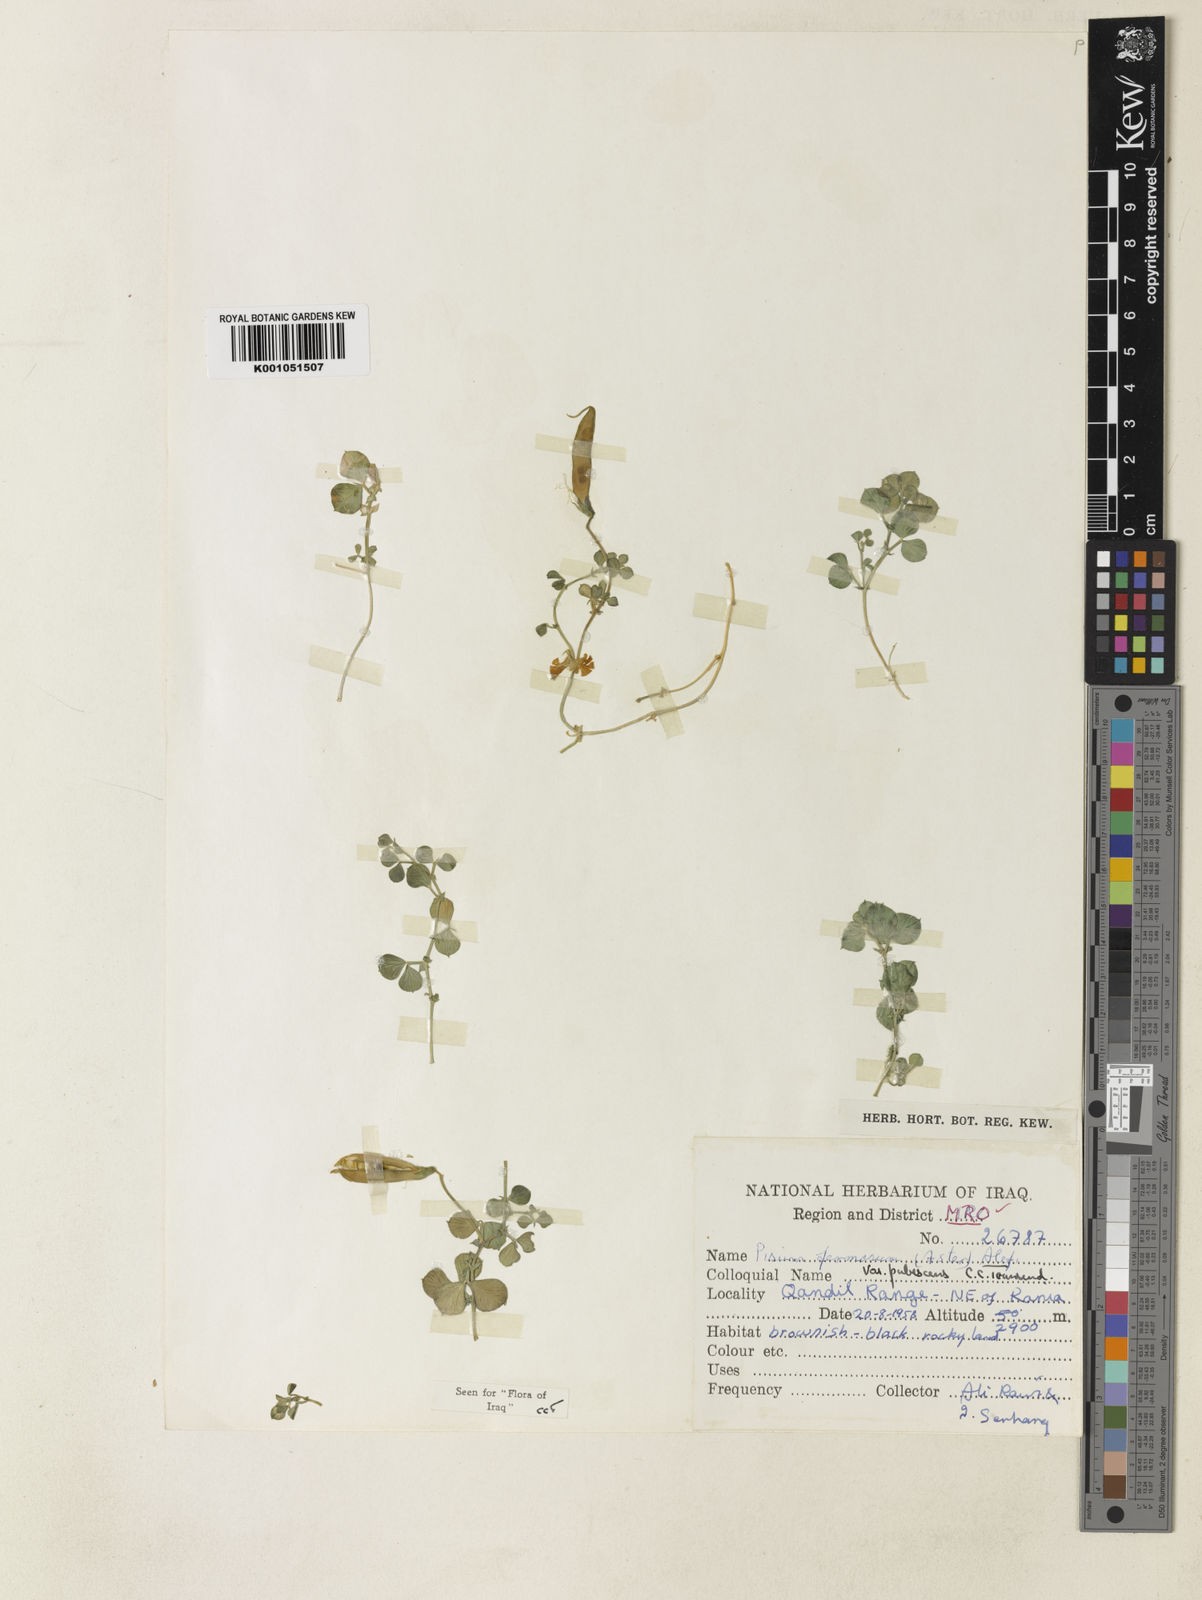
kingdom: Plantae
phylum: Tracheophyta
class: Magnoliopsida
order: Fabales
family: Fabaceae
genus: Lathyrus
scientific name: Lathyrus formosus
